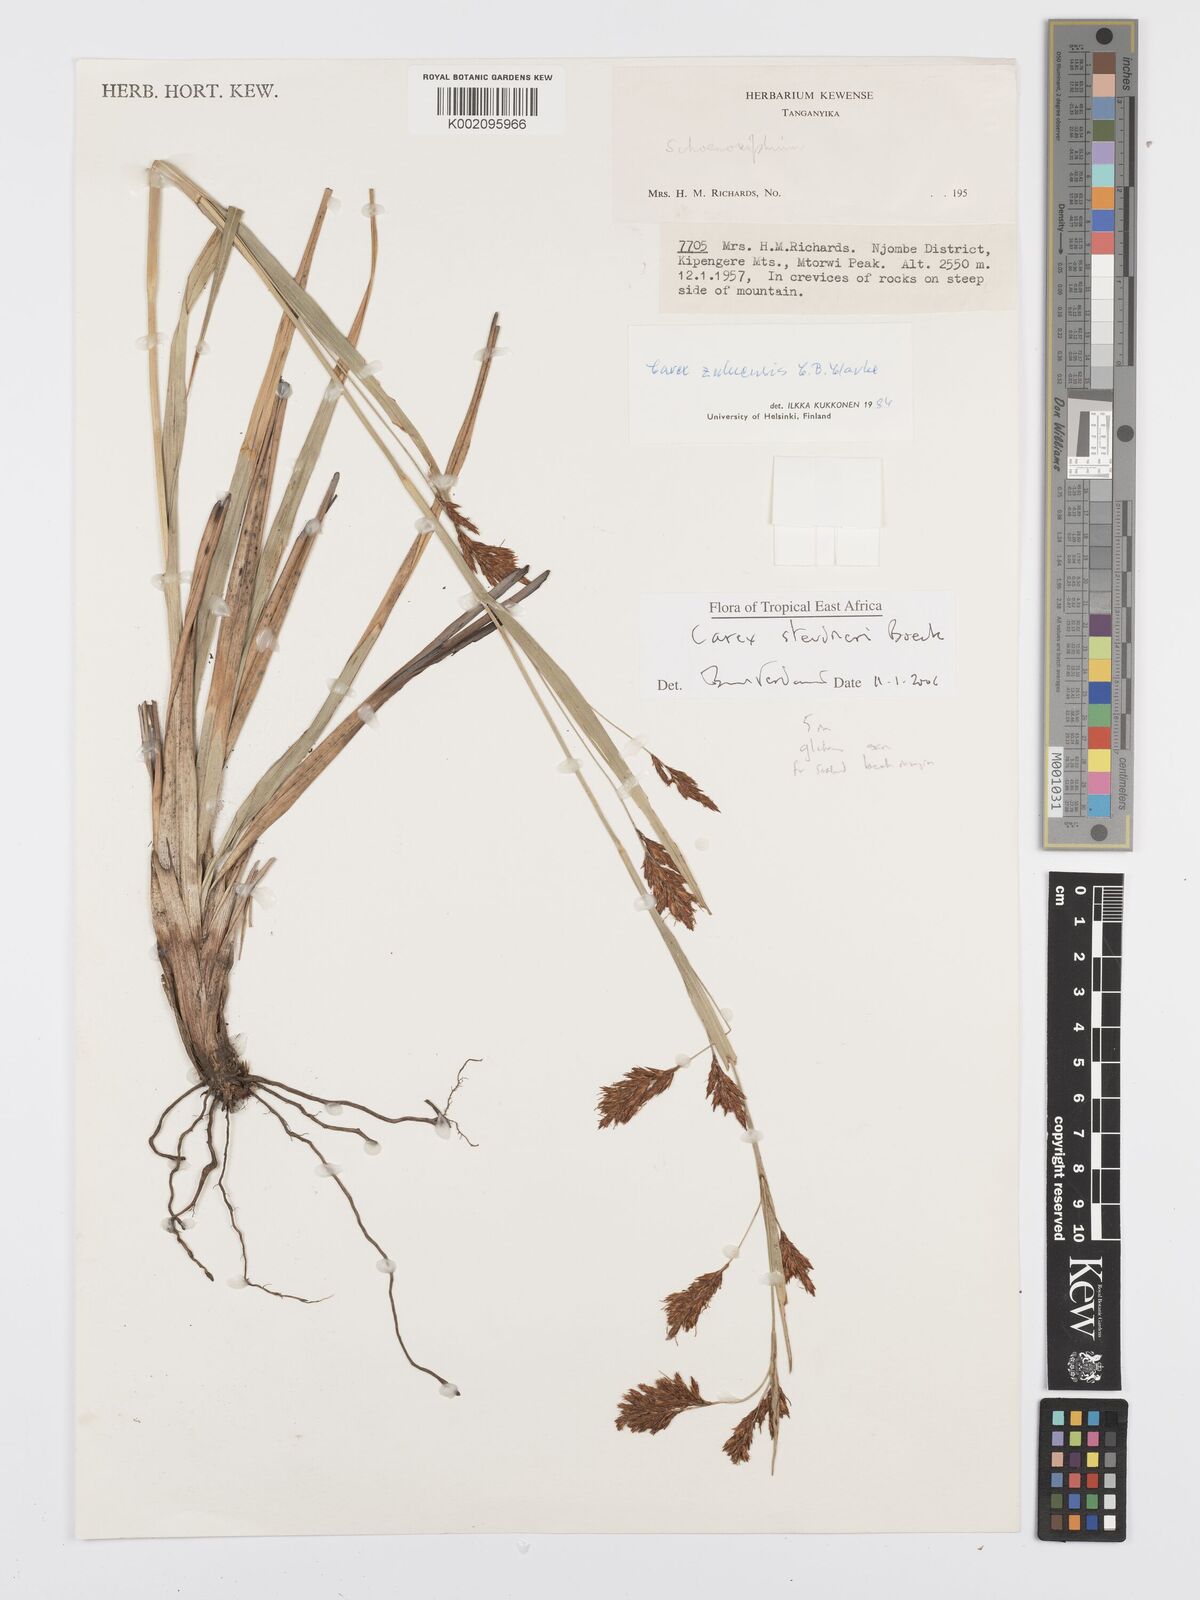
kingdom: Plantae
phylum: Tracheophyta
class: Liliopsida
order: Poales
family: Cyperaceae
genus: Carex
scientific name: Carex steudneri
